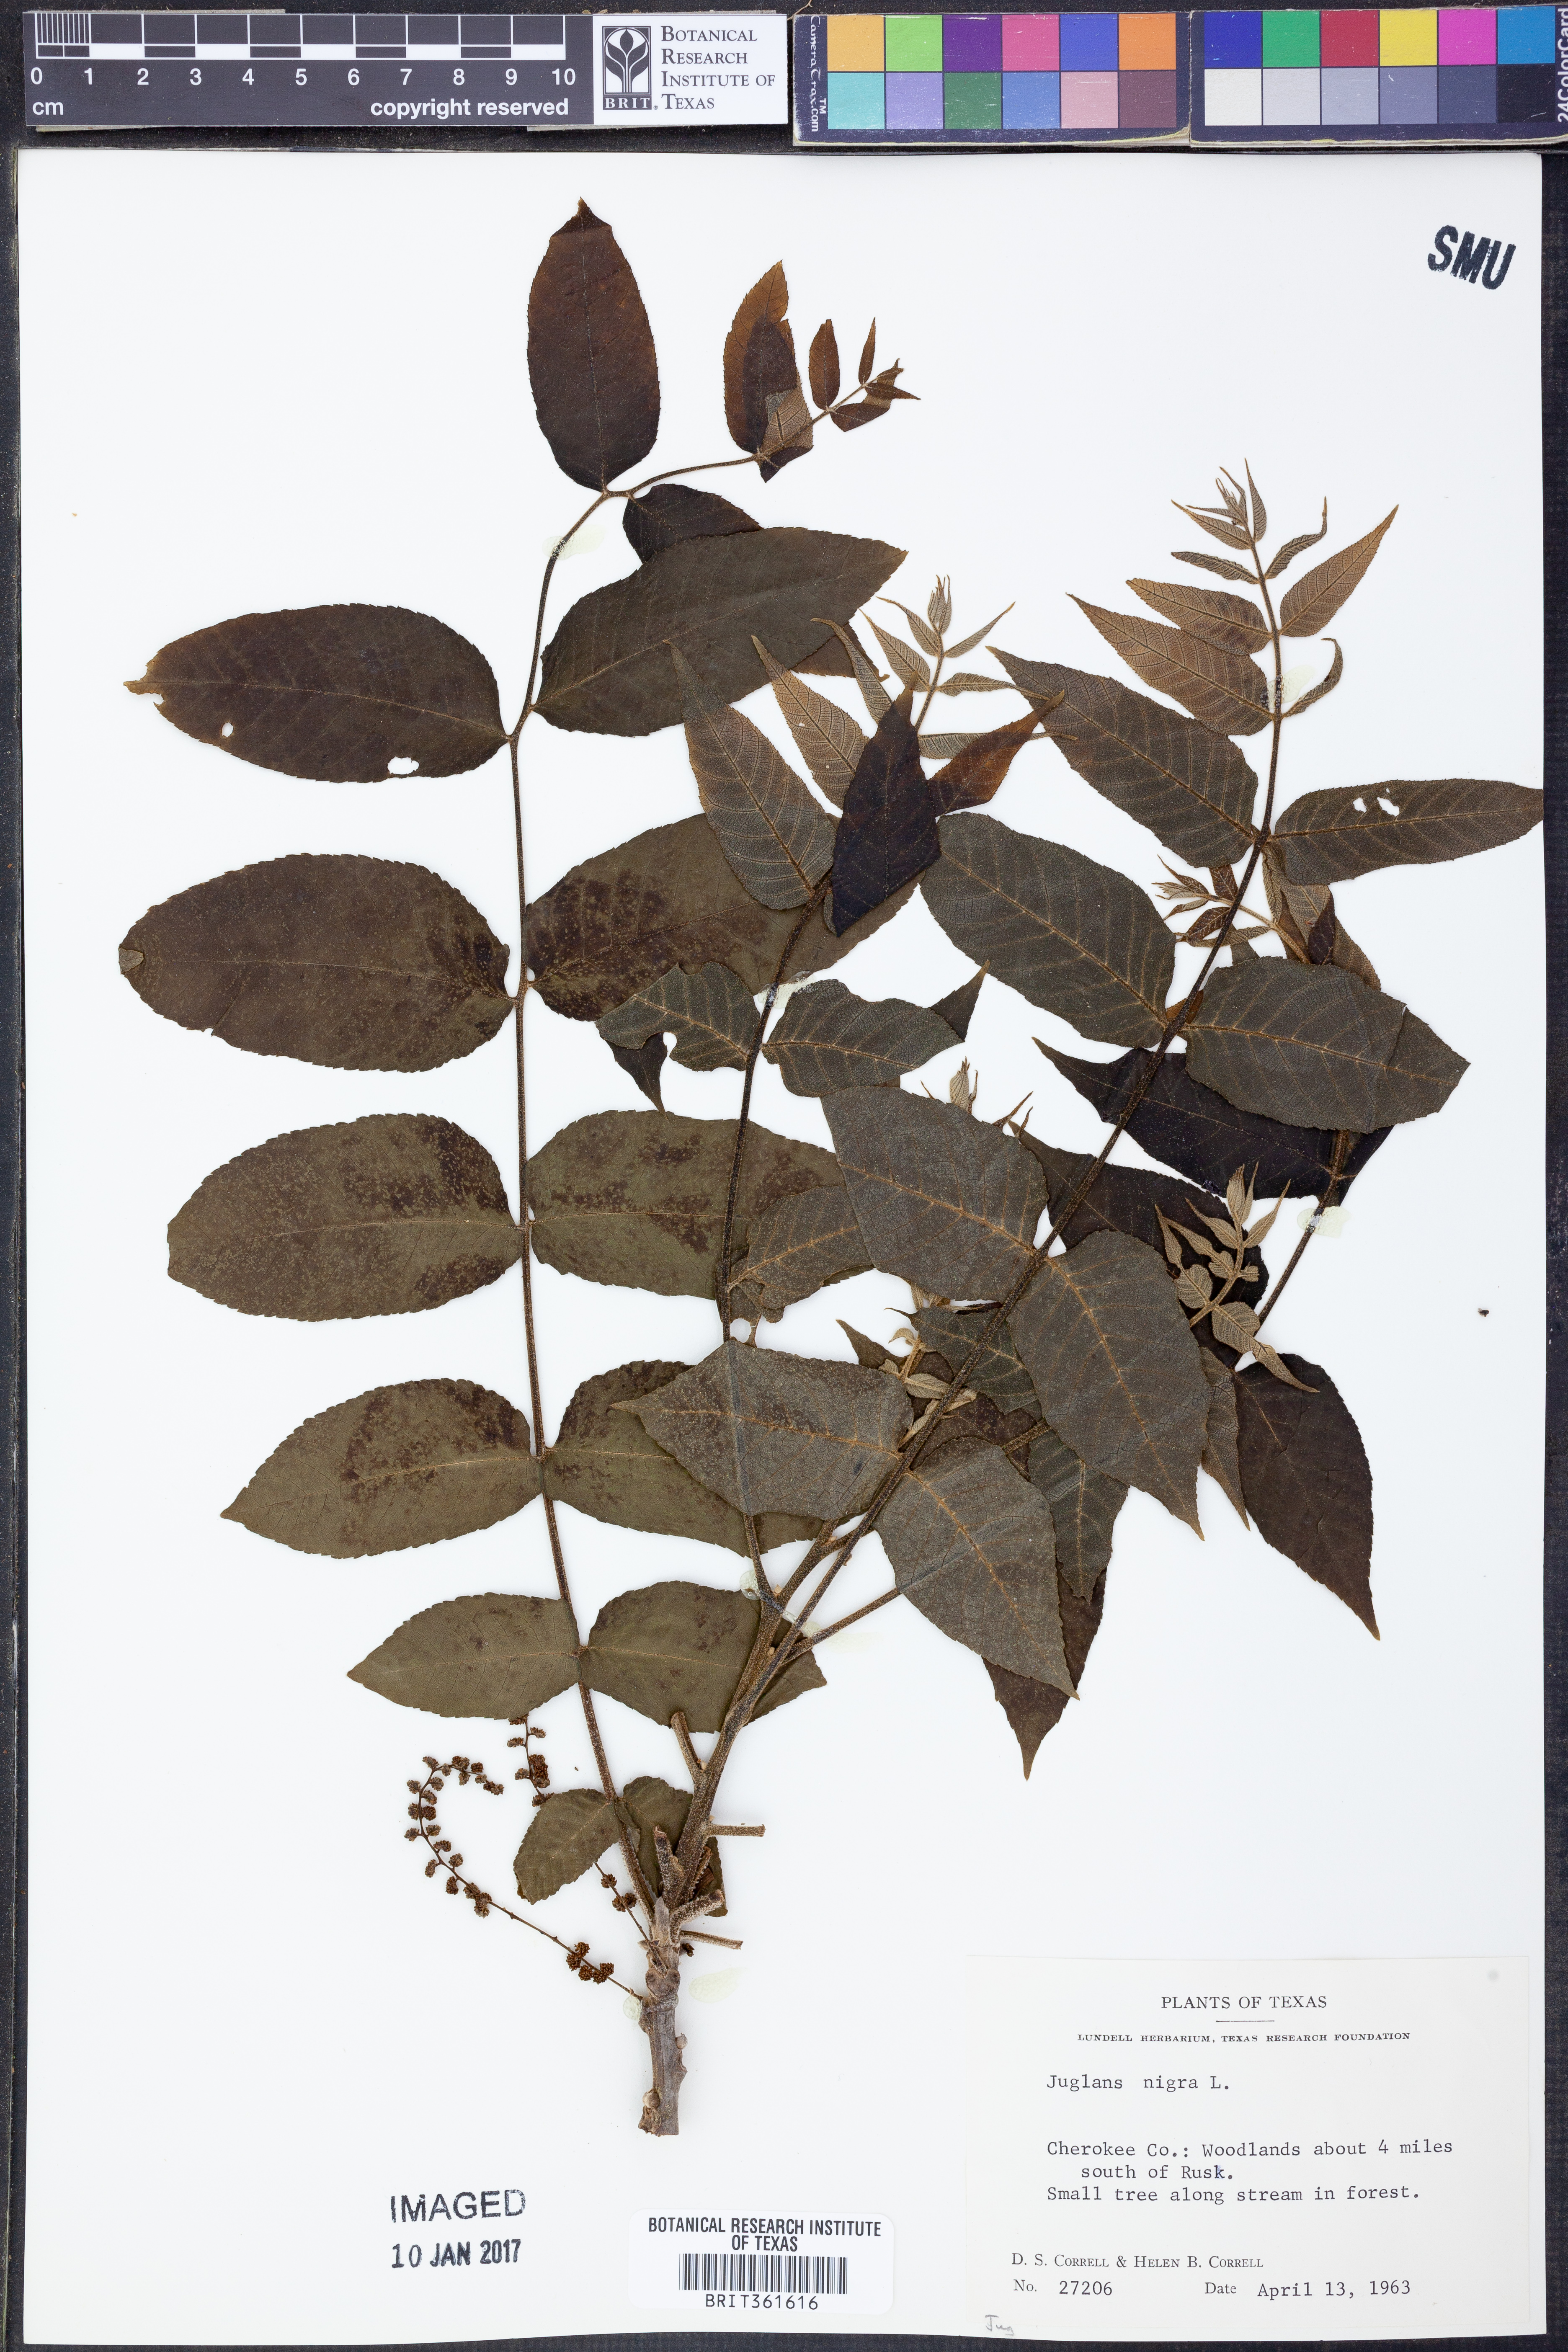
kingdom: Plantae
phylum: Tracheophyta
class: Magnoliopsida
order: Fagales
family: Juglandaceae
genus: Juglans
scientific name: Juglans nigra
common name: Black walnut
